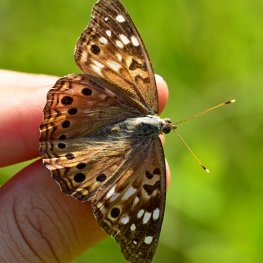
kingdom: Animalia
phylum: Arthropoda
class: Insecta
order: Lepidoptera
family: Nymphalidae
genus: Asterocampa
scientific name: Asterocampa celtis
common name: Hackberry Emperor
